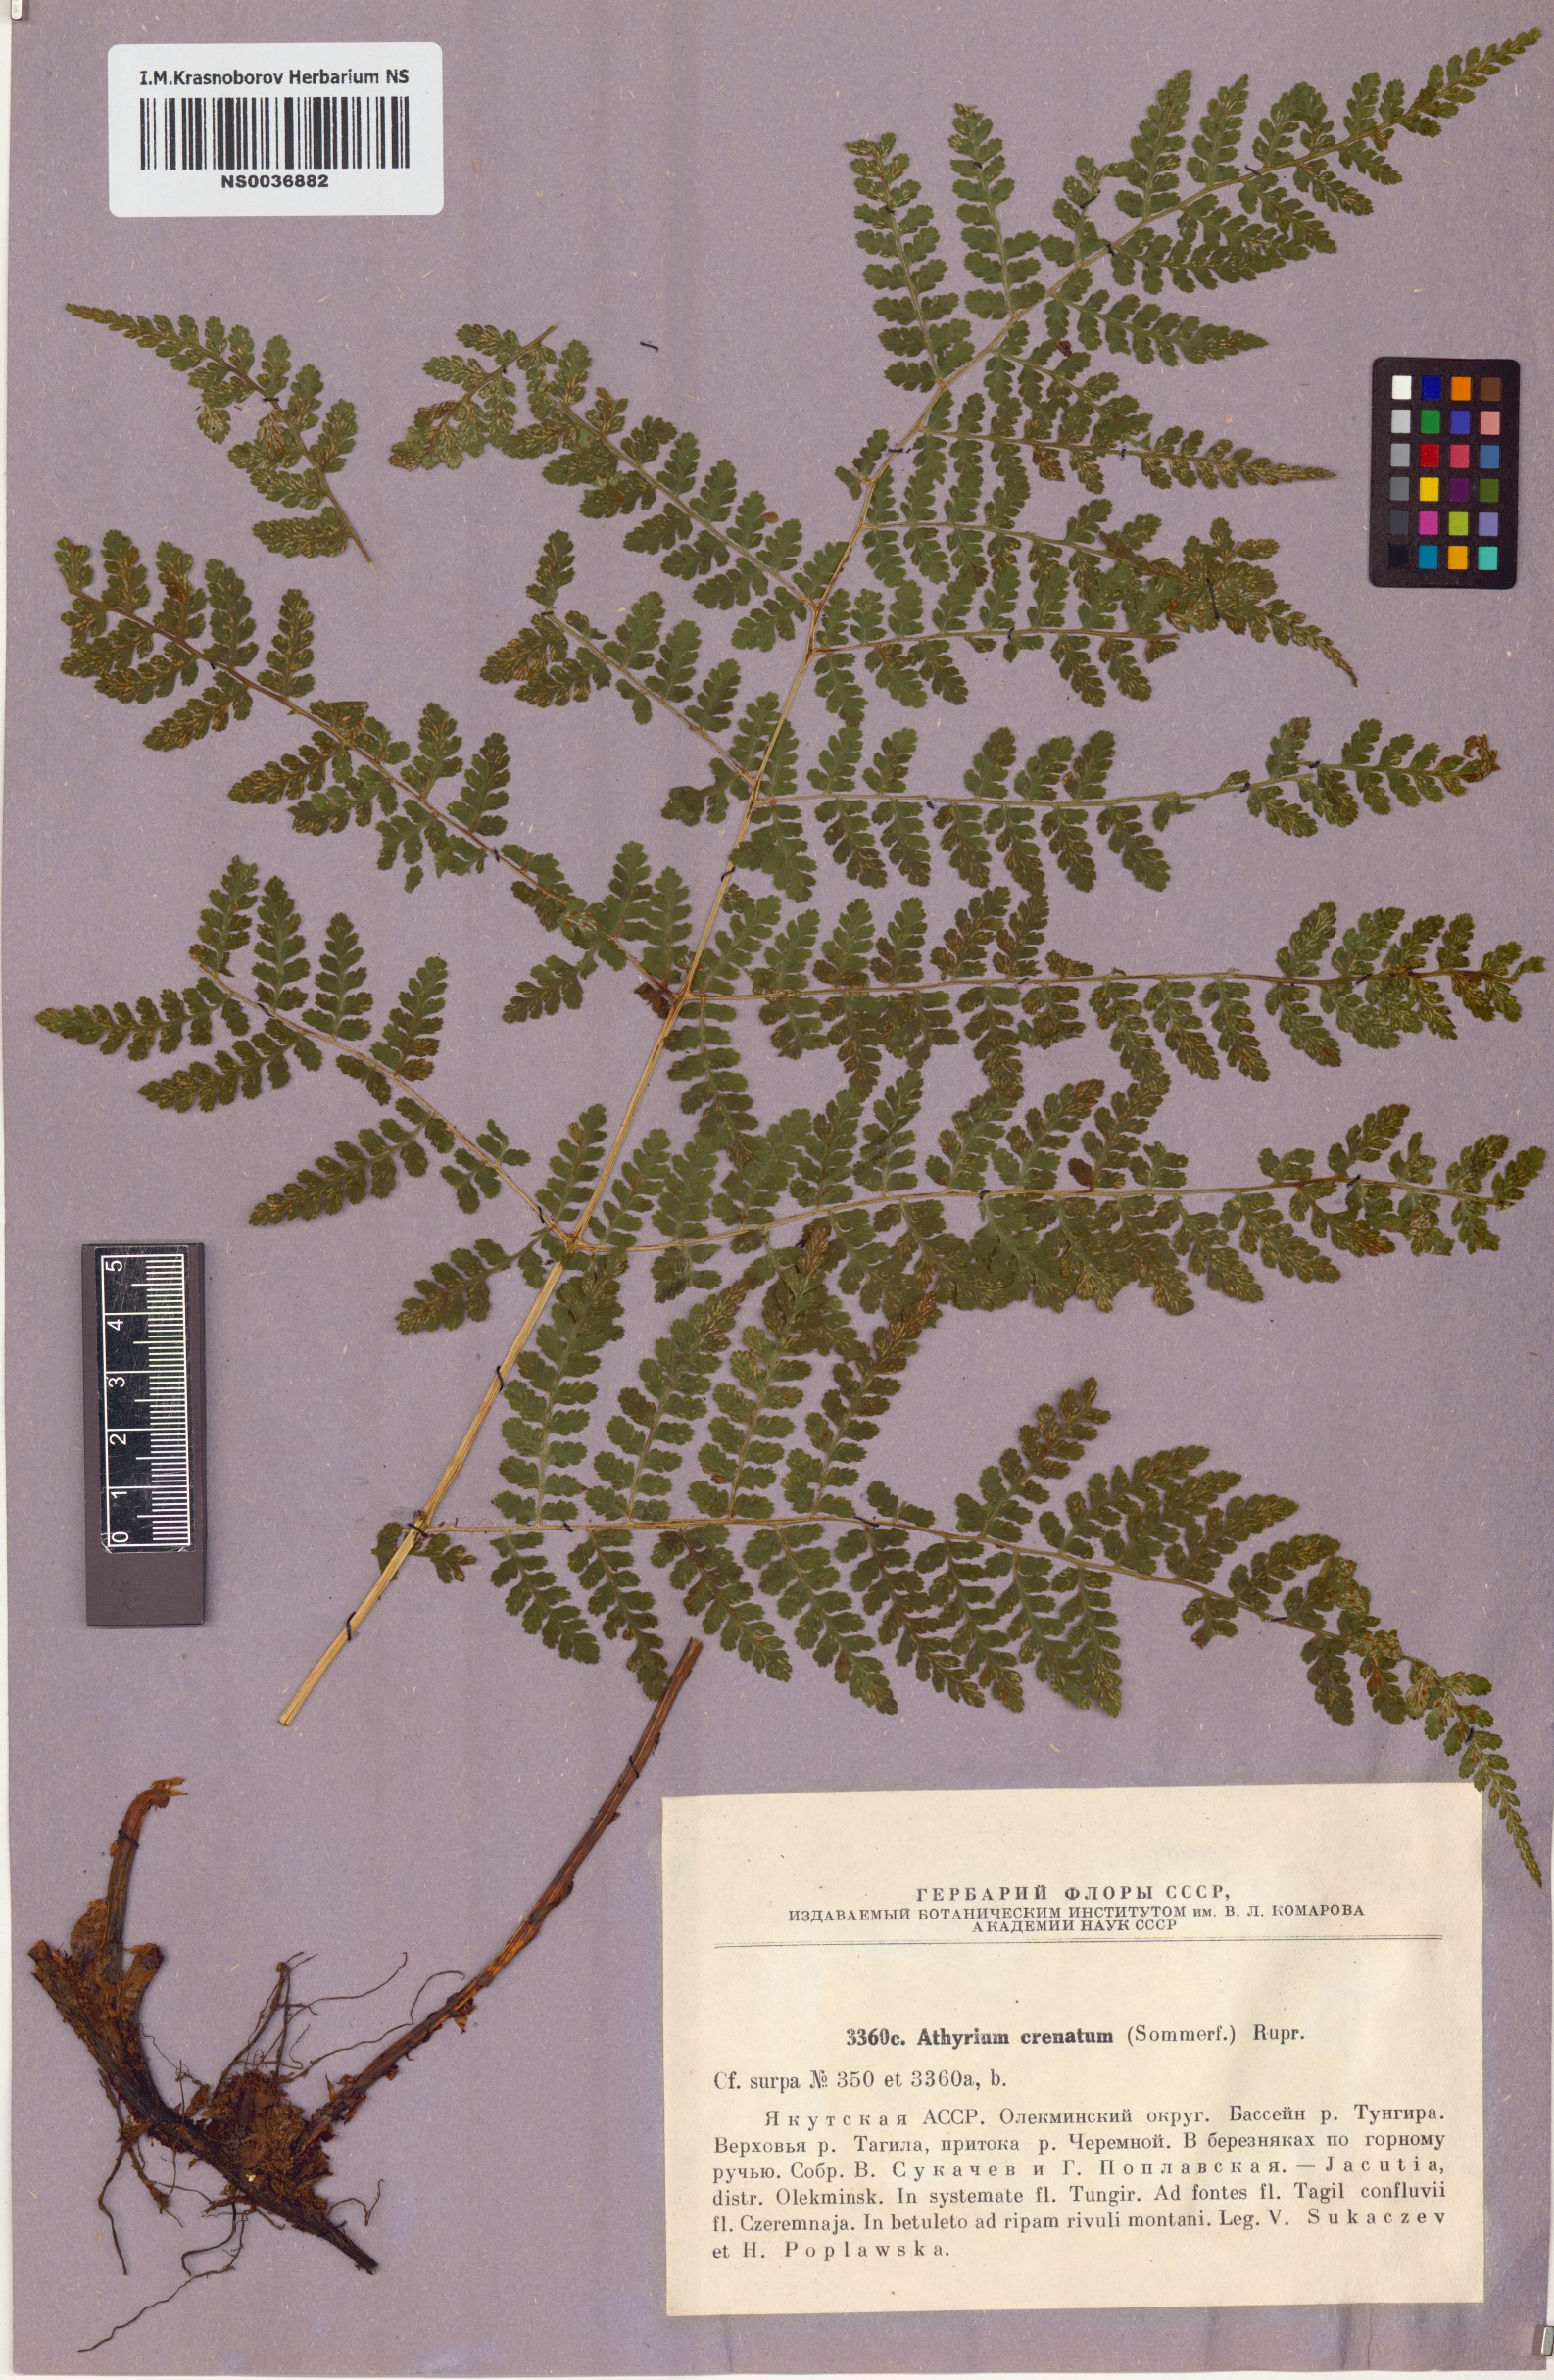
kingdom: Plantae
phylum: Tracheophyta
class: Polypodiopsida
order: Polypodiales
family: Athyriaceae
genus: Diplazium
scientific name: Diplazium sibiricum
